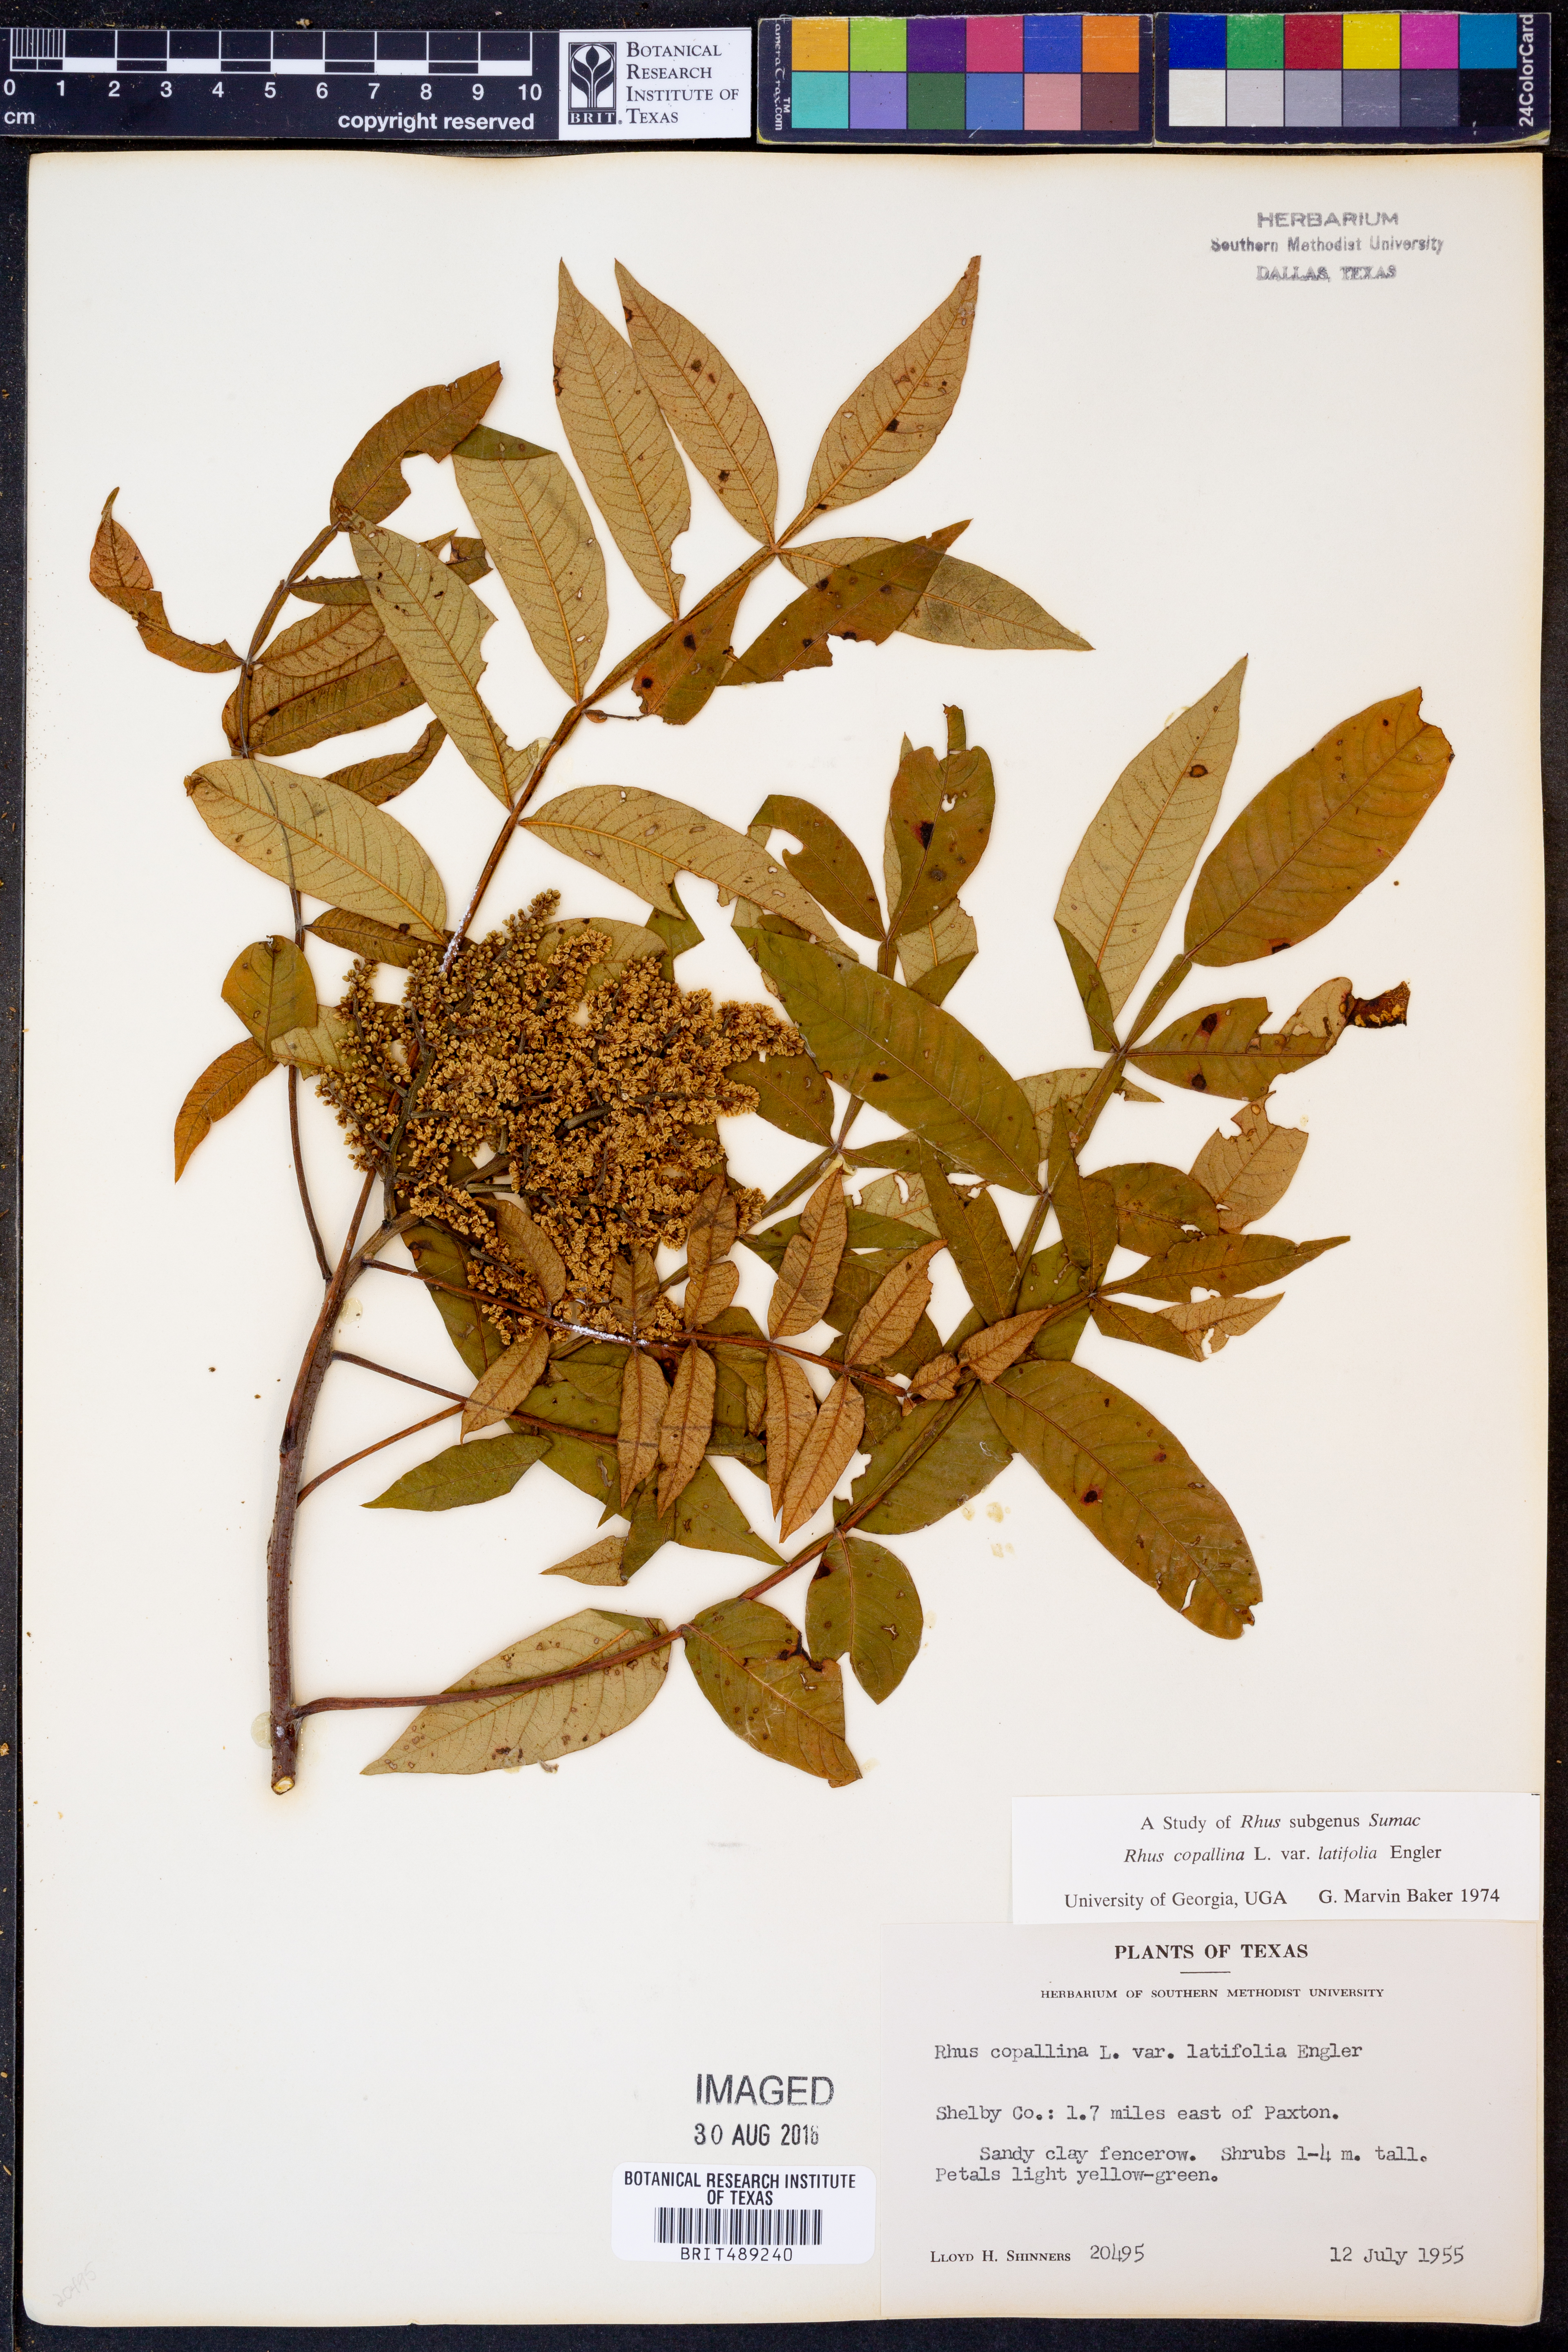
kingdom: Plantae
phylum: Tracheophyta
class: Magnoliopsida
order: Sapindales
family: Anacardiaceae
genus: Rhus
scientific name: Rhus copallina
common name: Shining sumac
